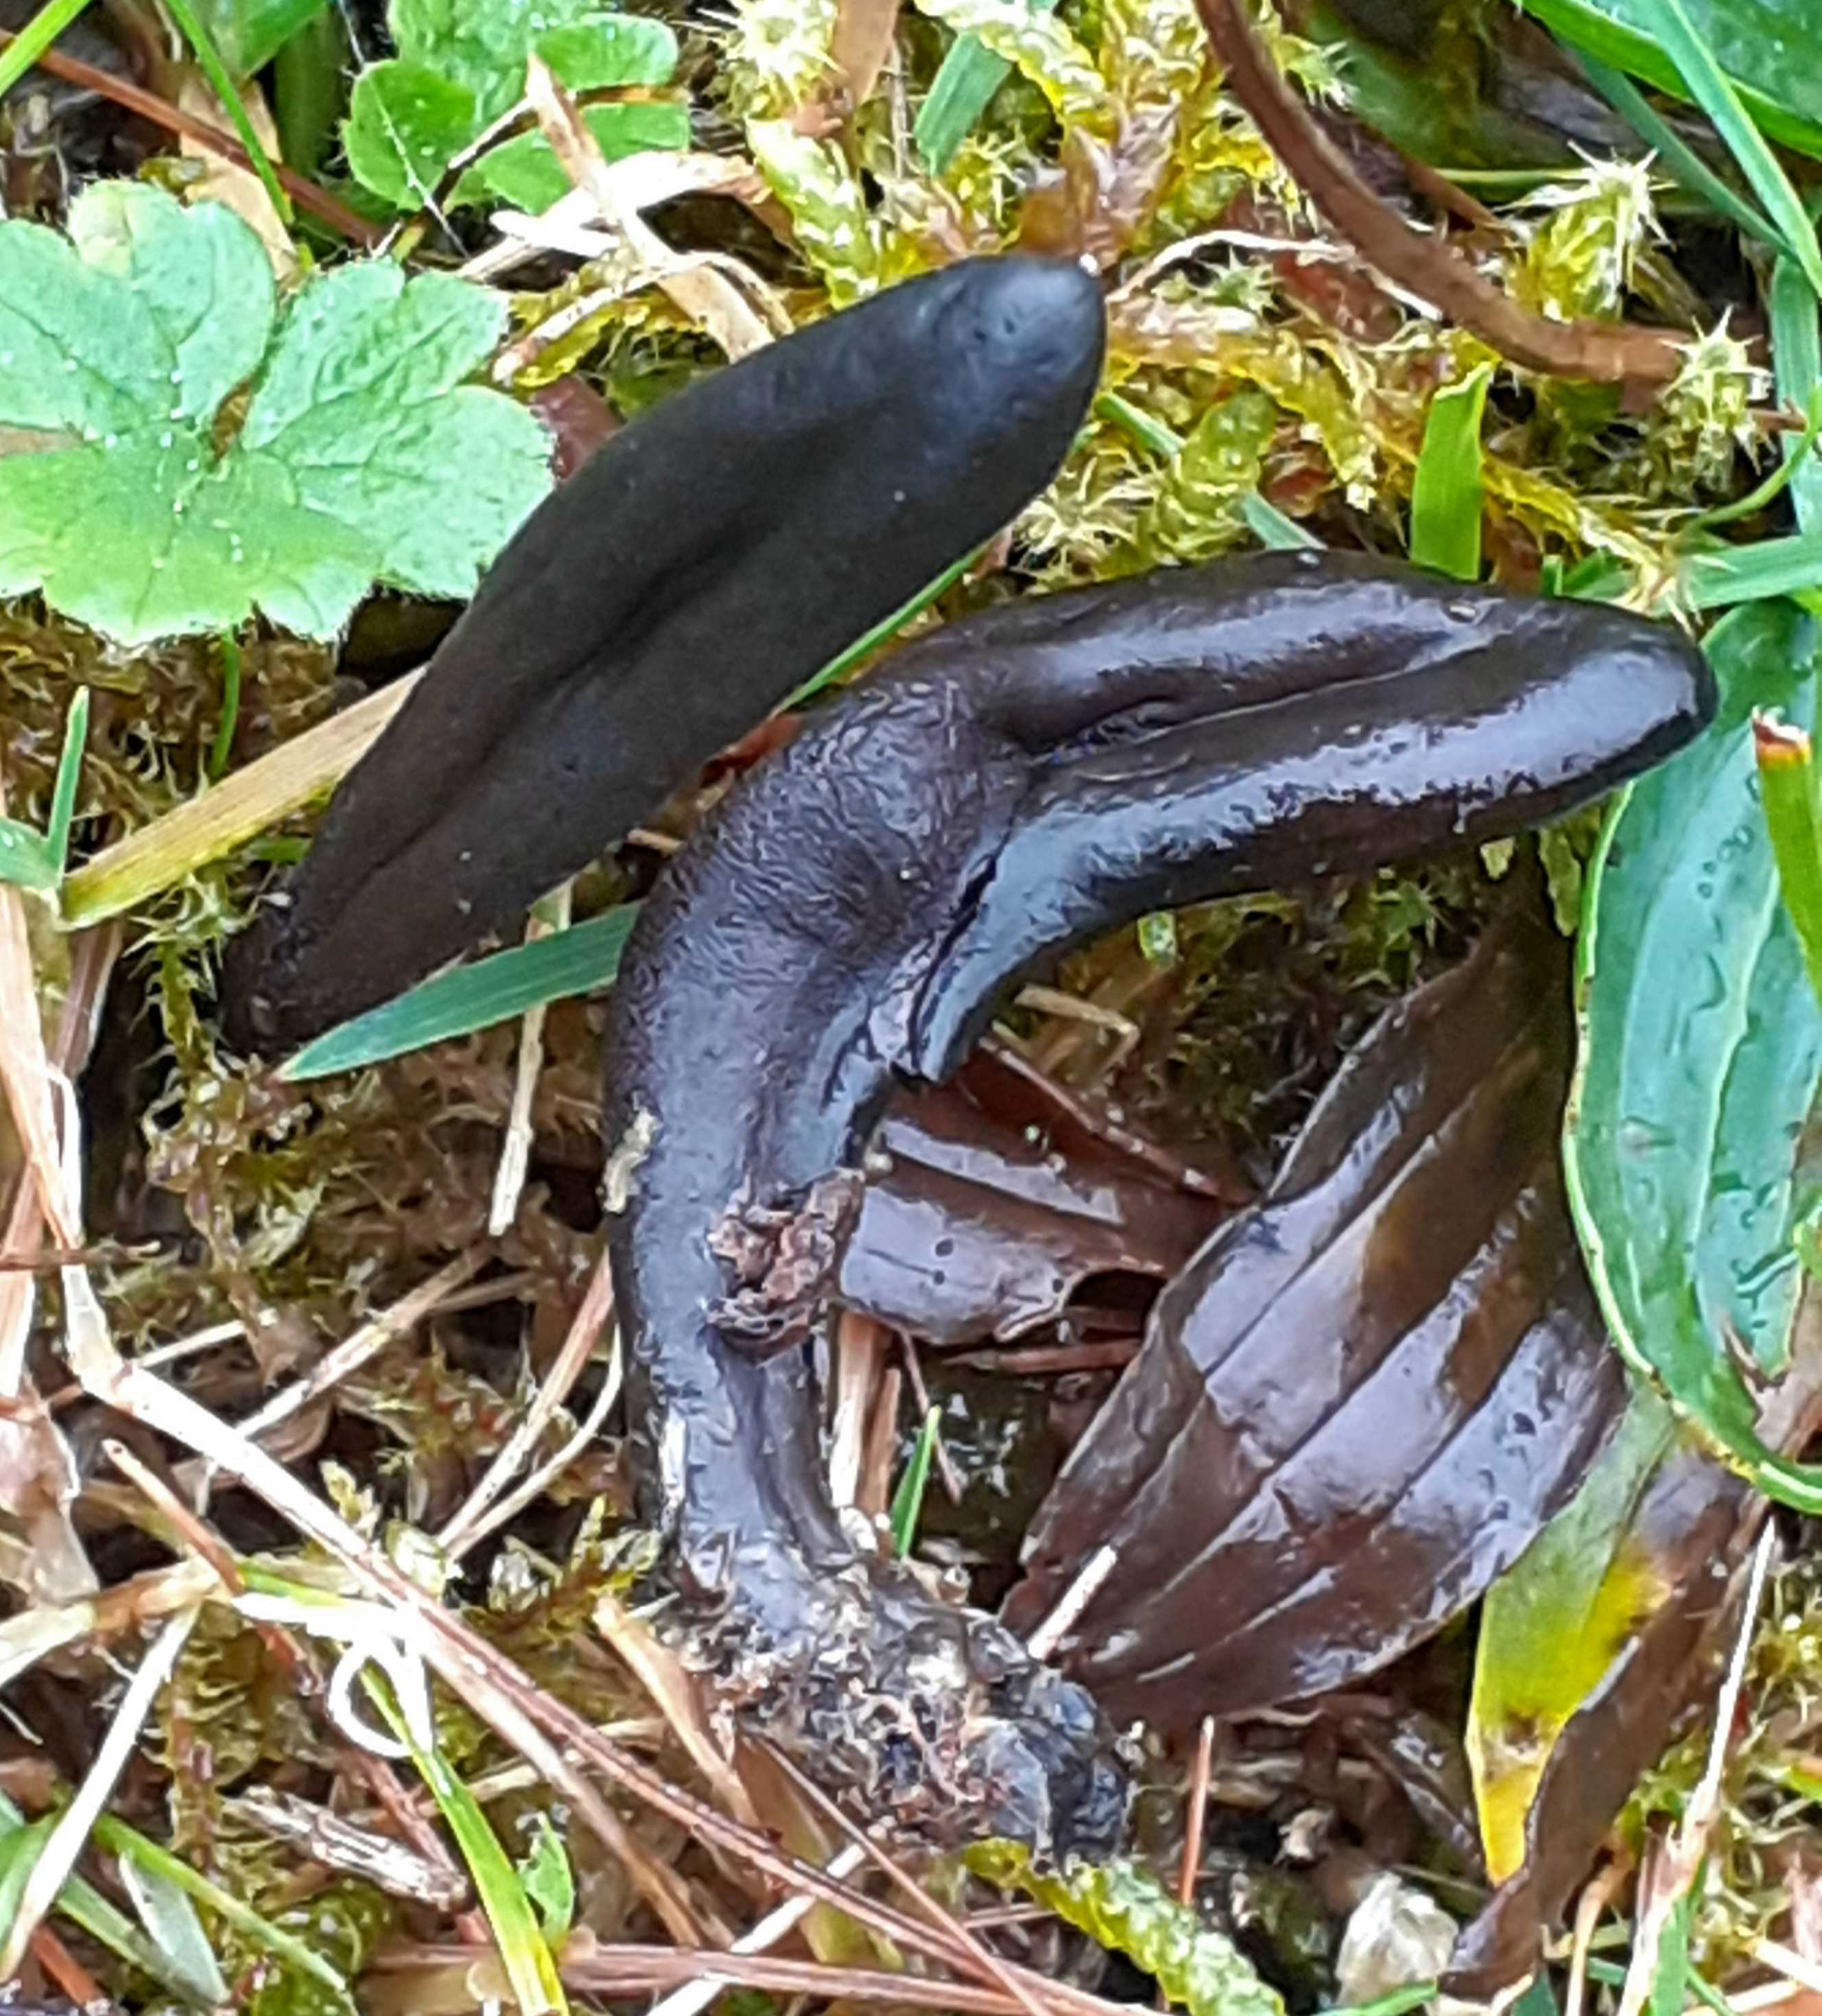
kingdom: Fungi
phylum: Ascomycota
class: Geoglossomycetes
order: Geoglossales
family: Geoglossaceae
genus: Glutinoglossum
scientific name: Glutinoglossum
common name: jordtunge
